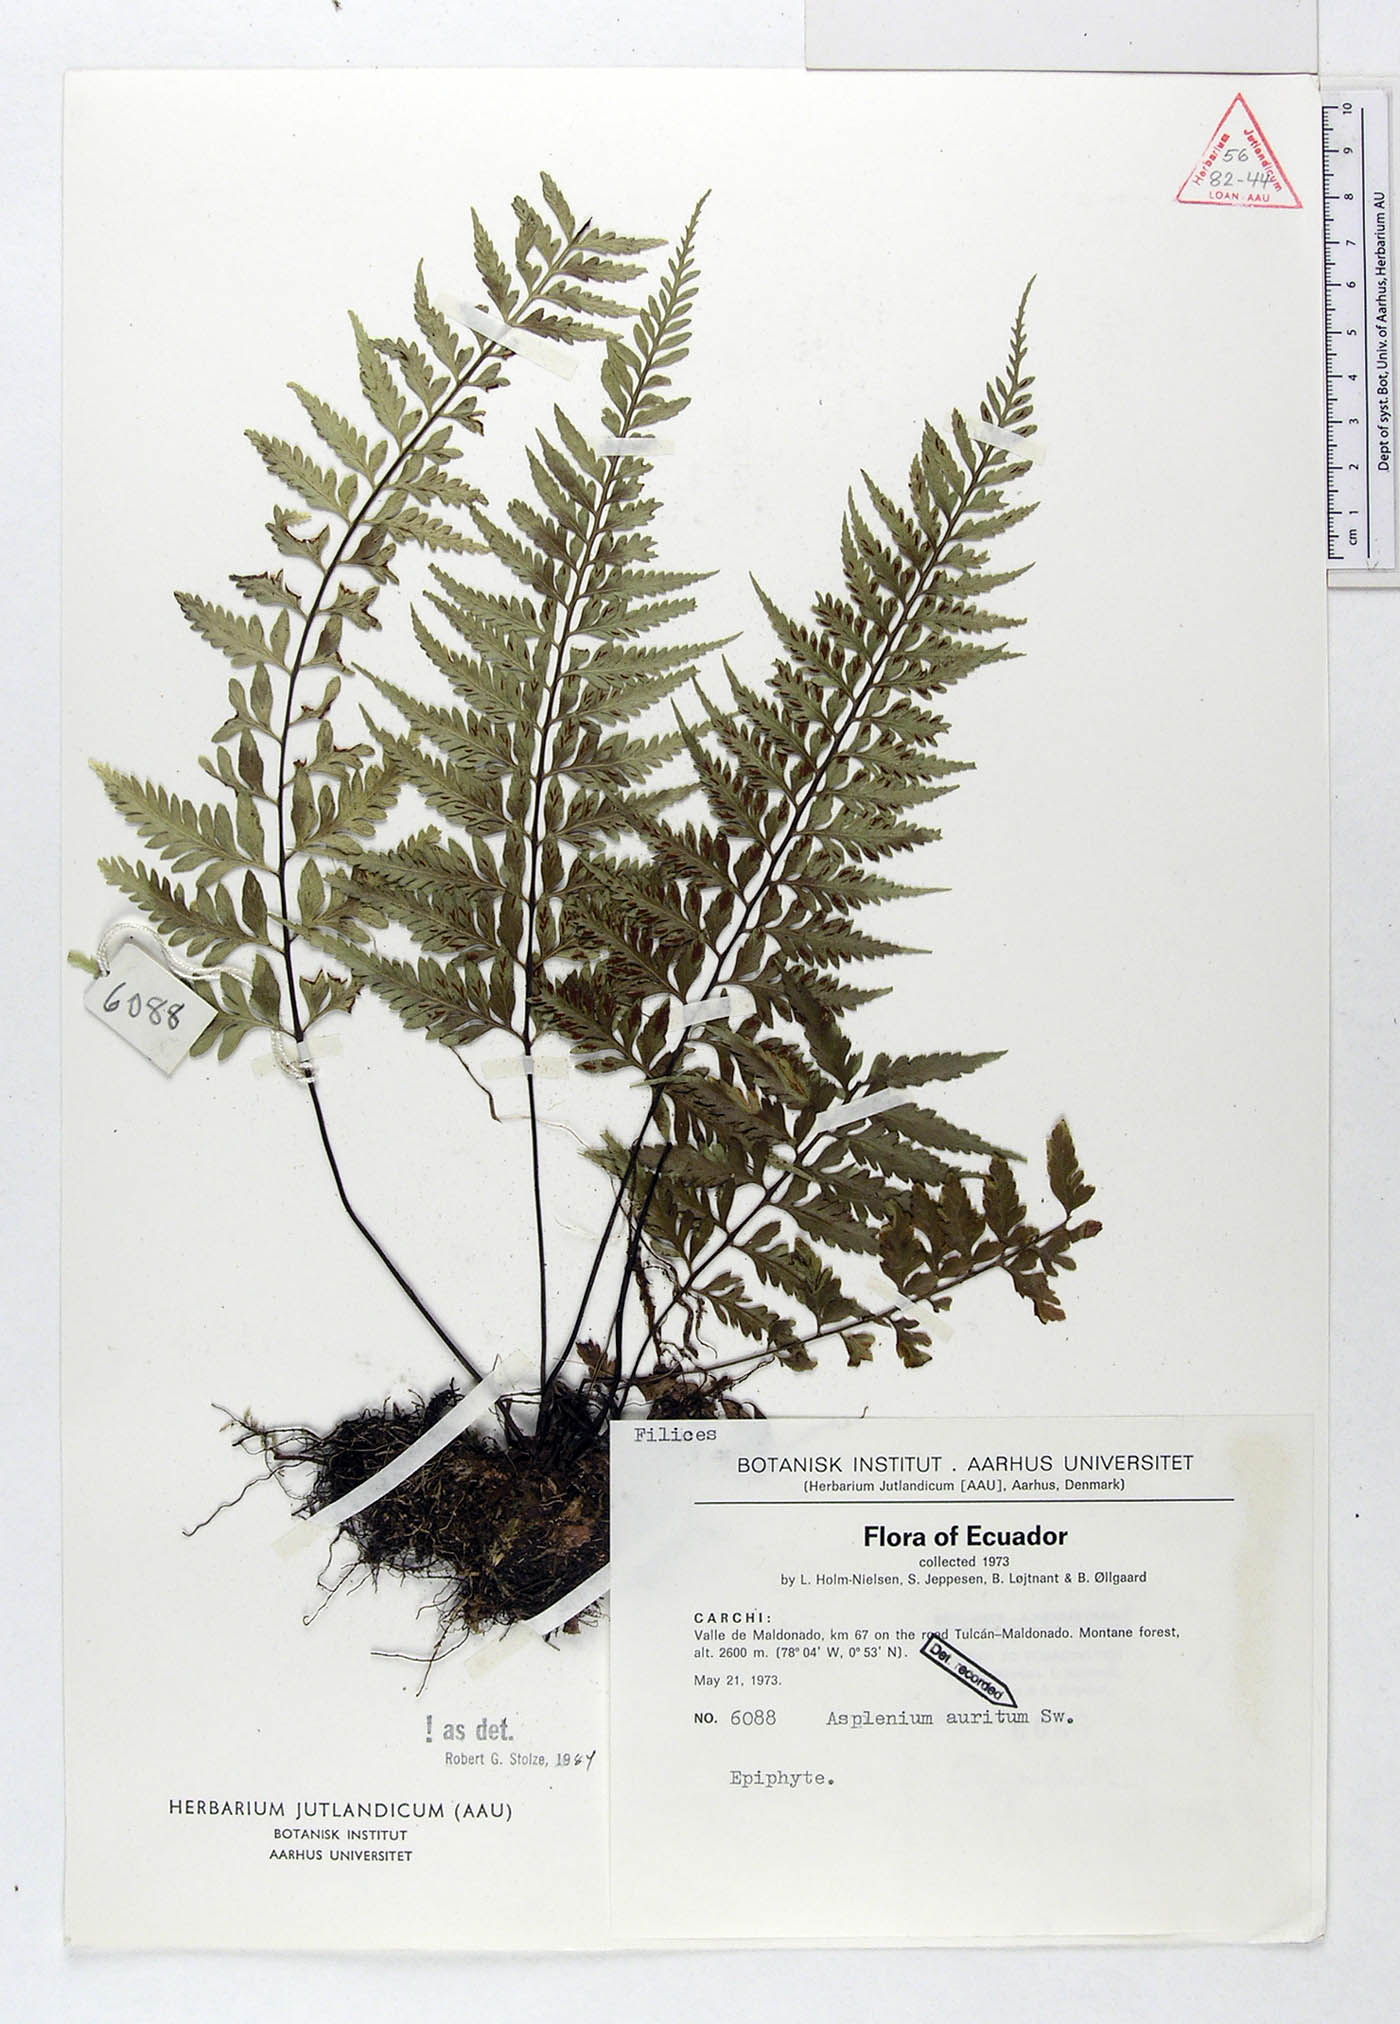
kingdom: Plantae
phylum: Tracheophyta
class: Polypodiopsida
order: Polypodiales
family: Aspleniaceae
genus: Asplenium
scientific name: Asplenium auritum
